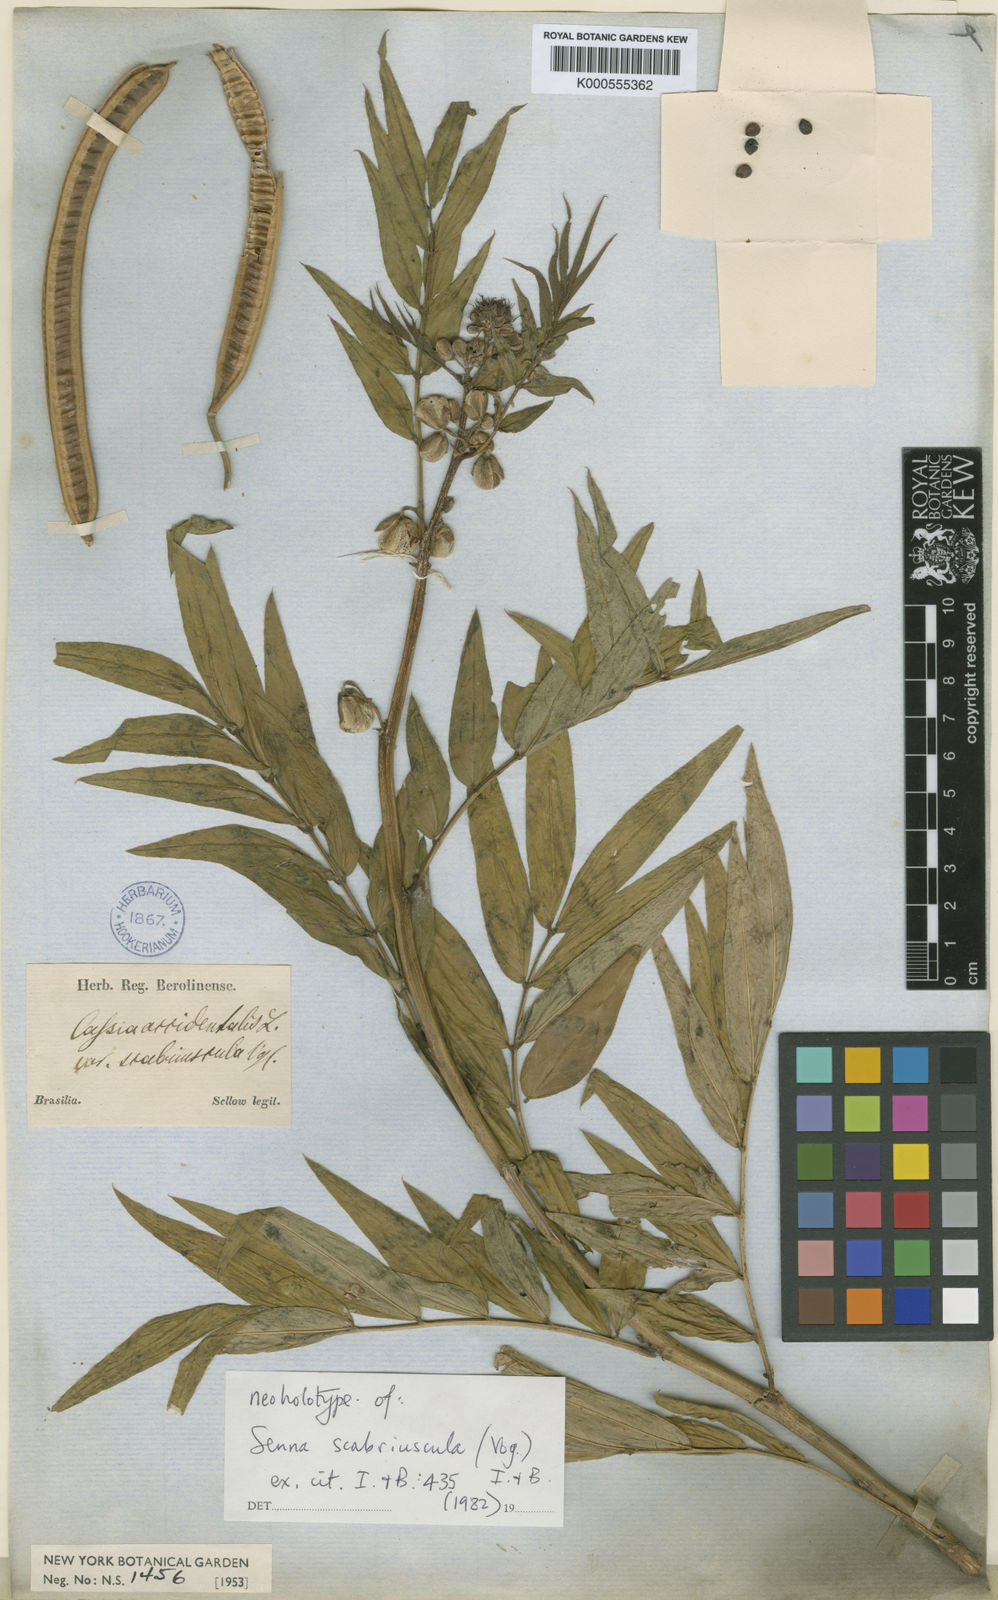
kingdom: Plantae
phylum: Tracheophyta
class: Magnoliopsida
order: Fabales
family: Fabaceae
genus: Senna
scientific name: Senna
